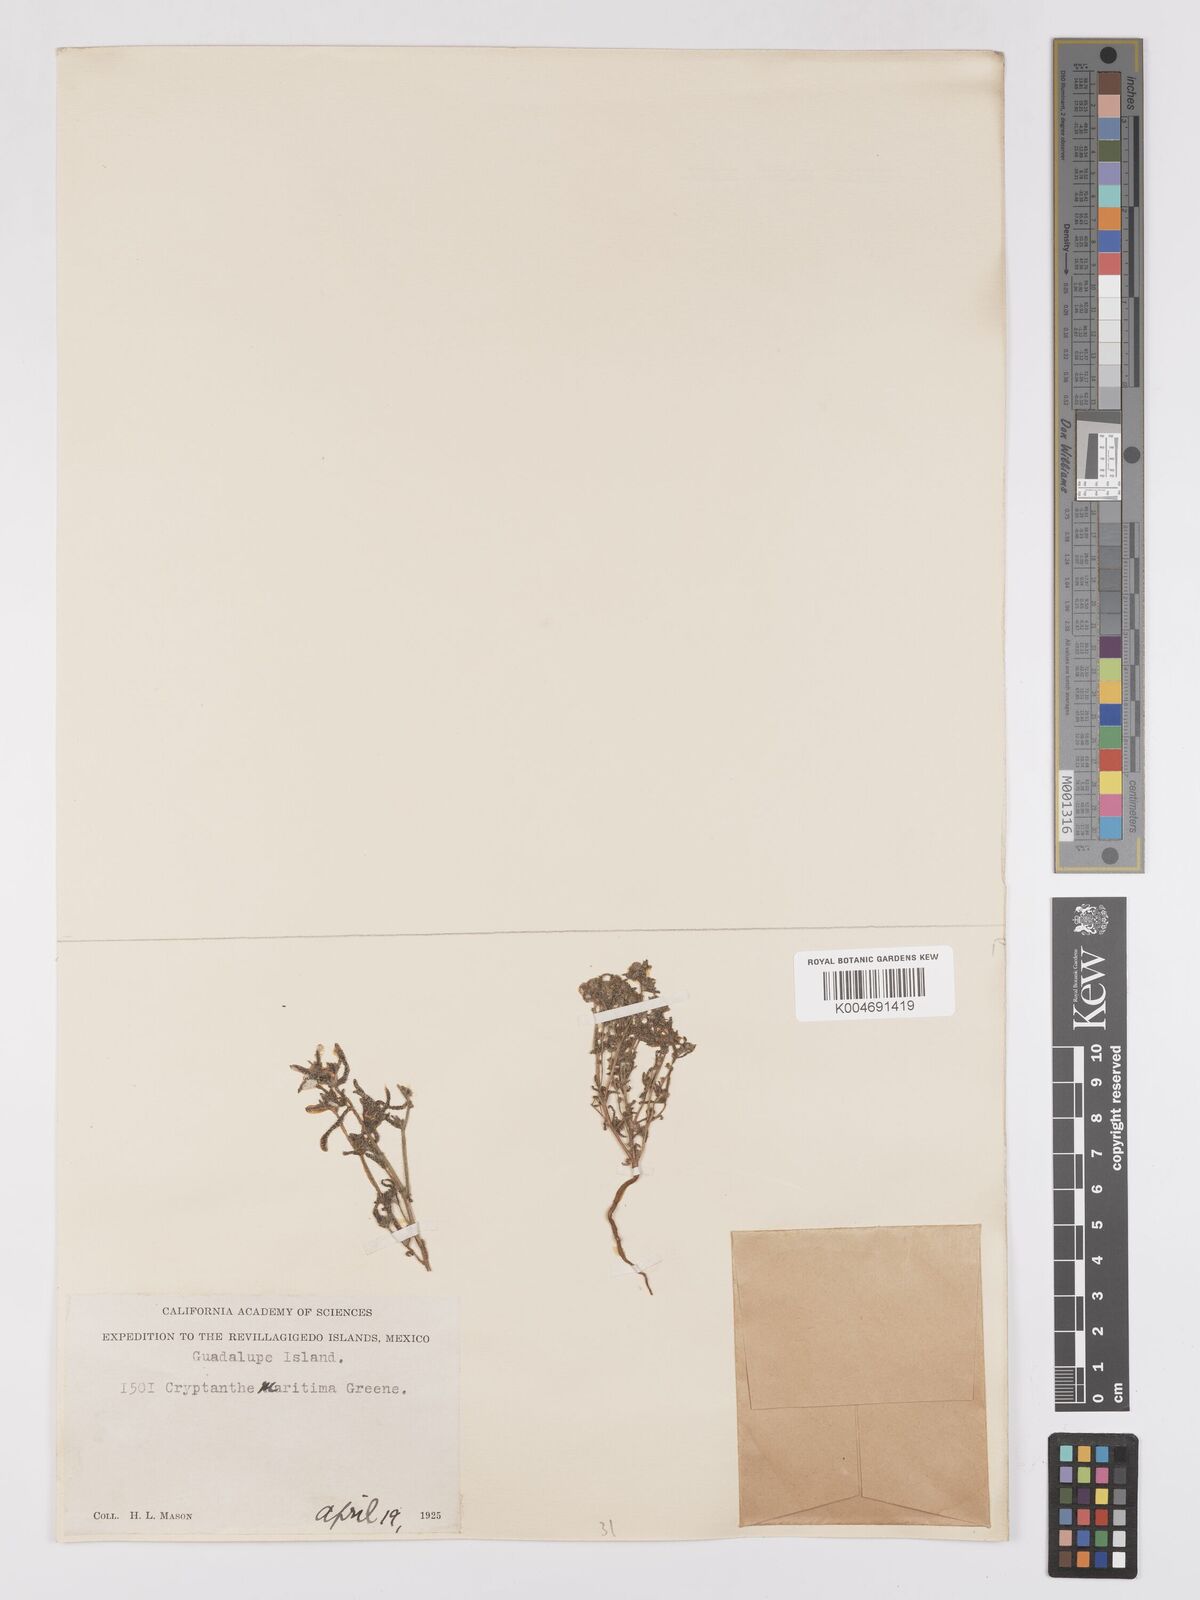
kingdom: Plantae
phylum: Tracheophyta
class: Magnoliopsida
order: Boraginales
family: Boraginaceae
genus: Cryptantha
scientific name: Cryptantha maritima
